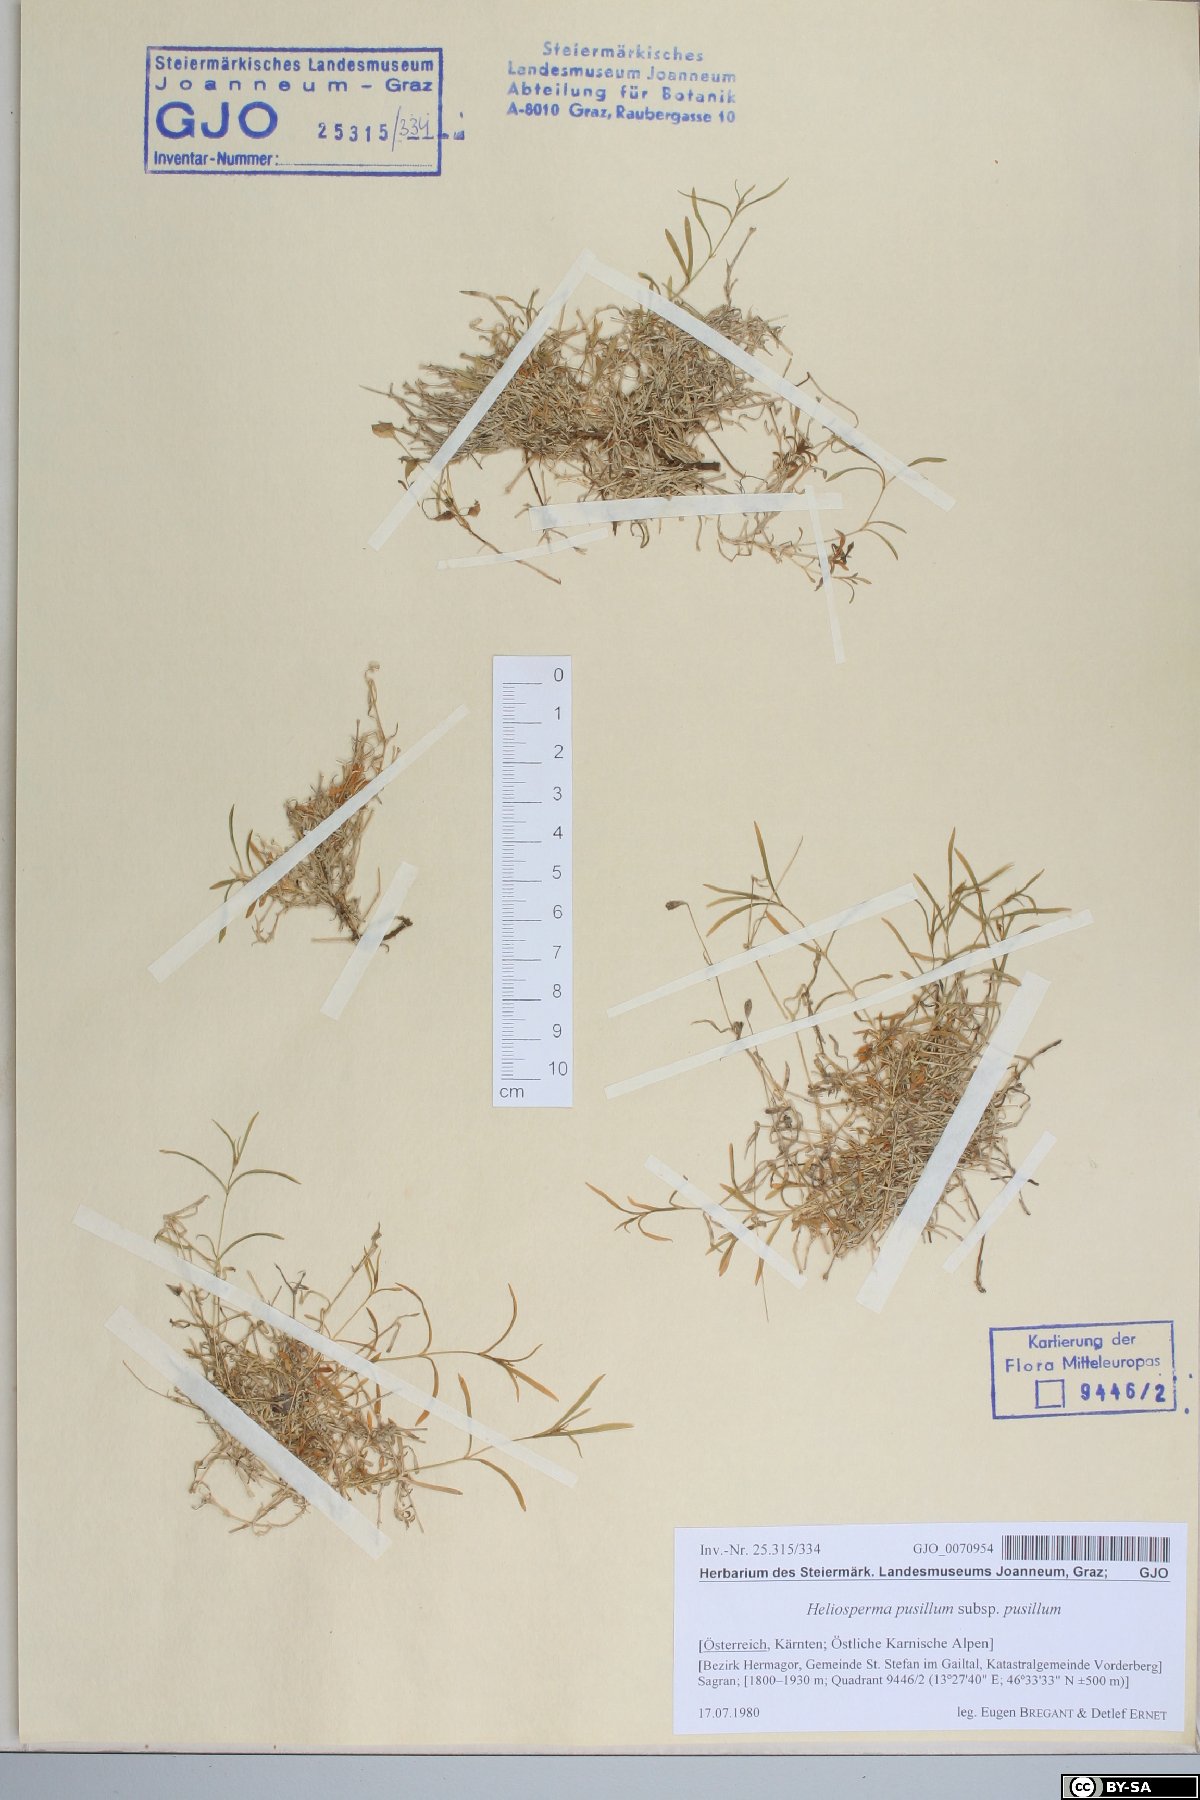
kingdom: Plantae
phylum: Tracheophyta
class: Magnoliopsida
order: Caryophyllales
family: Caryophyllaceae
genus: Heliosperma
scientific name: Heliosperma pusillum
